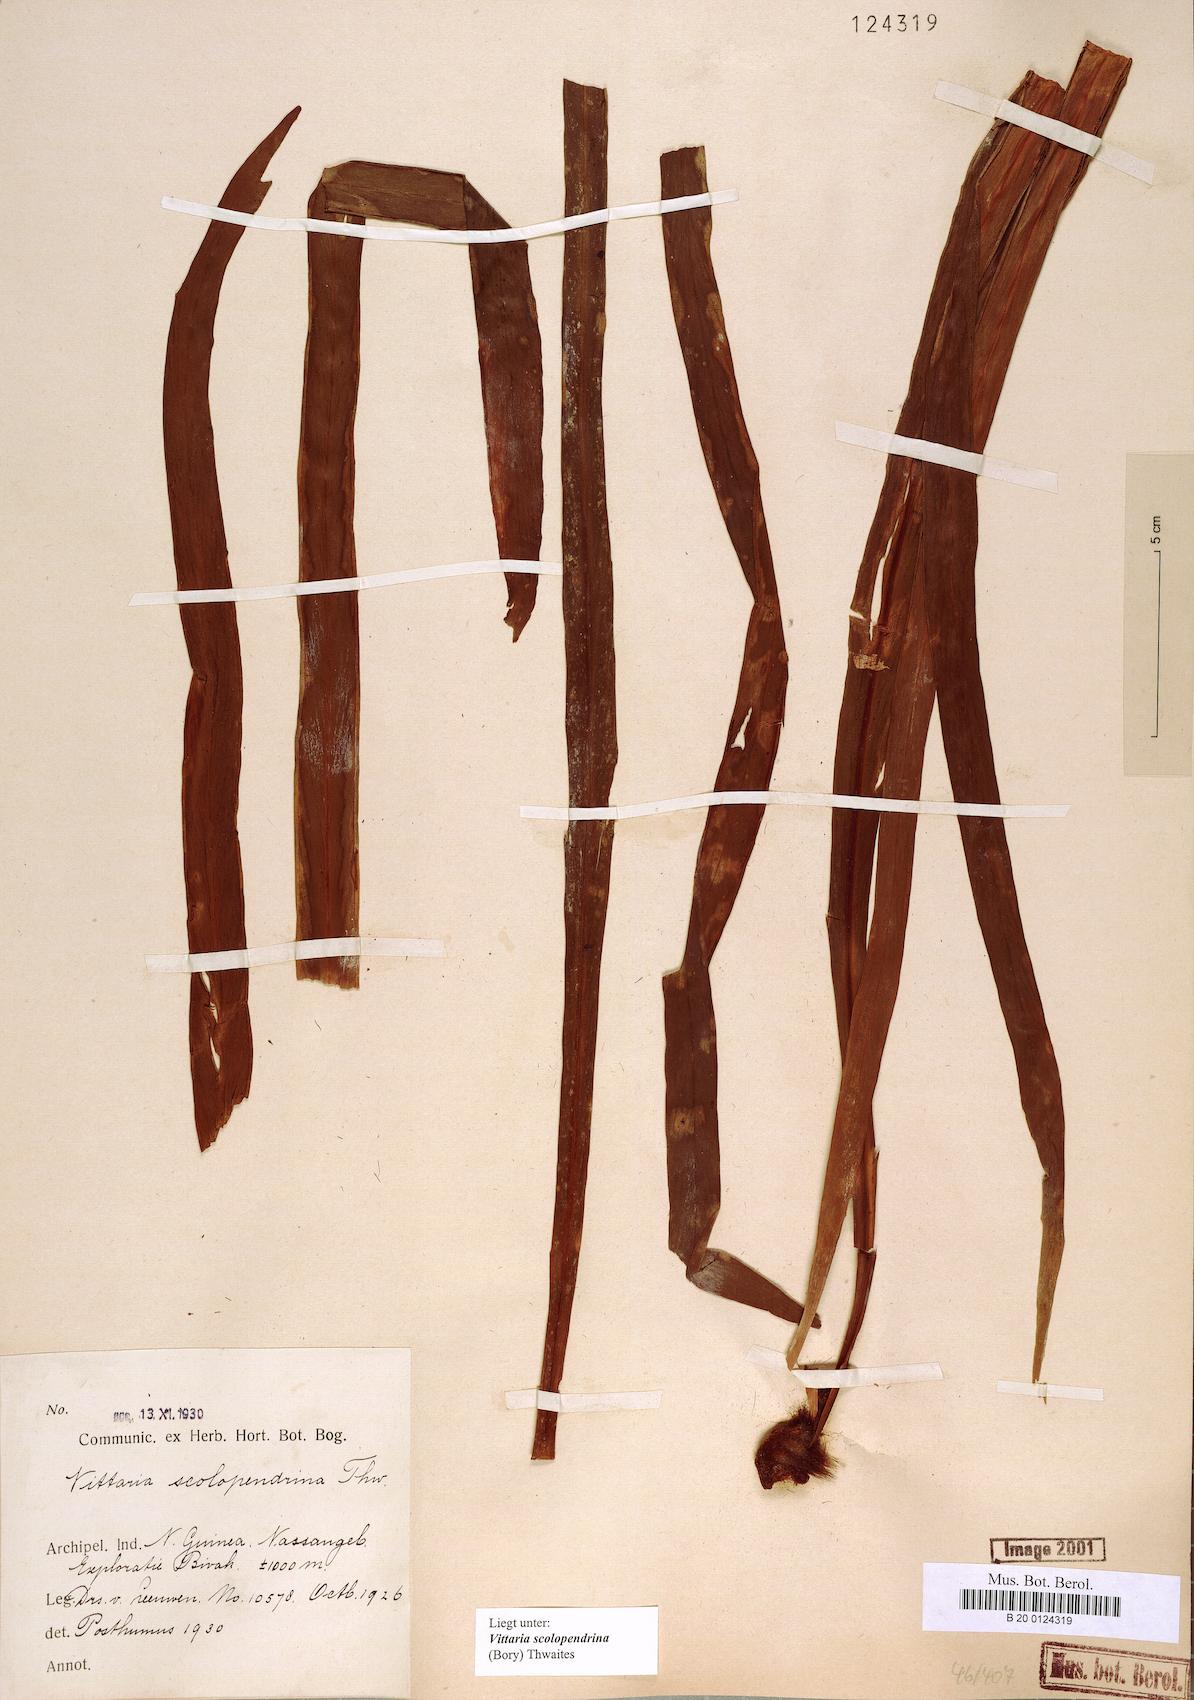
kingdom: Plantae
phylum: Tracheophyta
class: Polypodiopsida
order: Polypodiales
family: Pteridaceae
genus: Haplopteris
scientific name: Haplopteris scolopendrina
